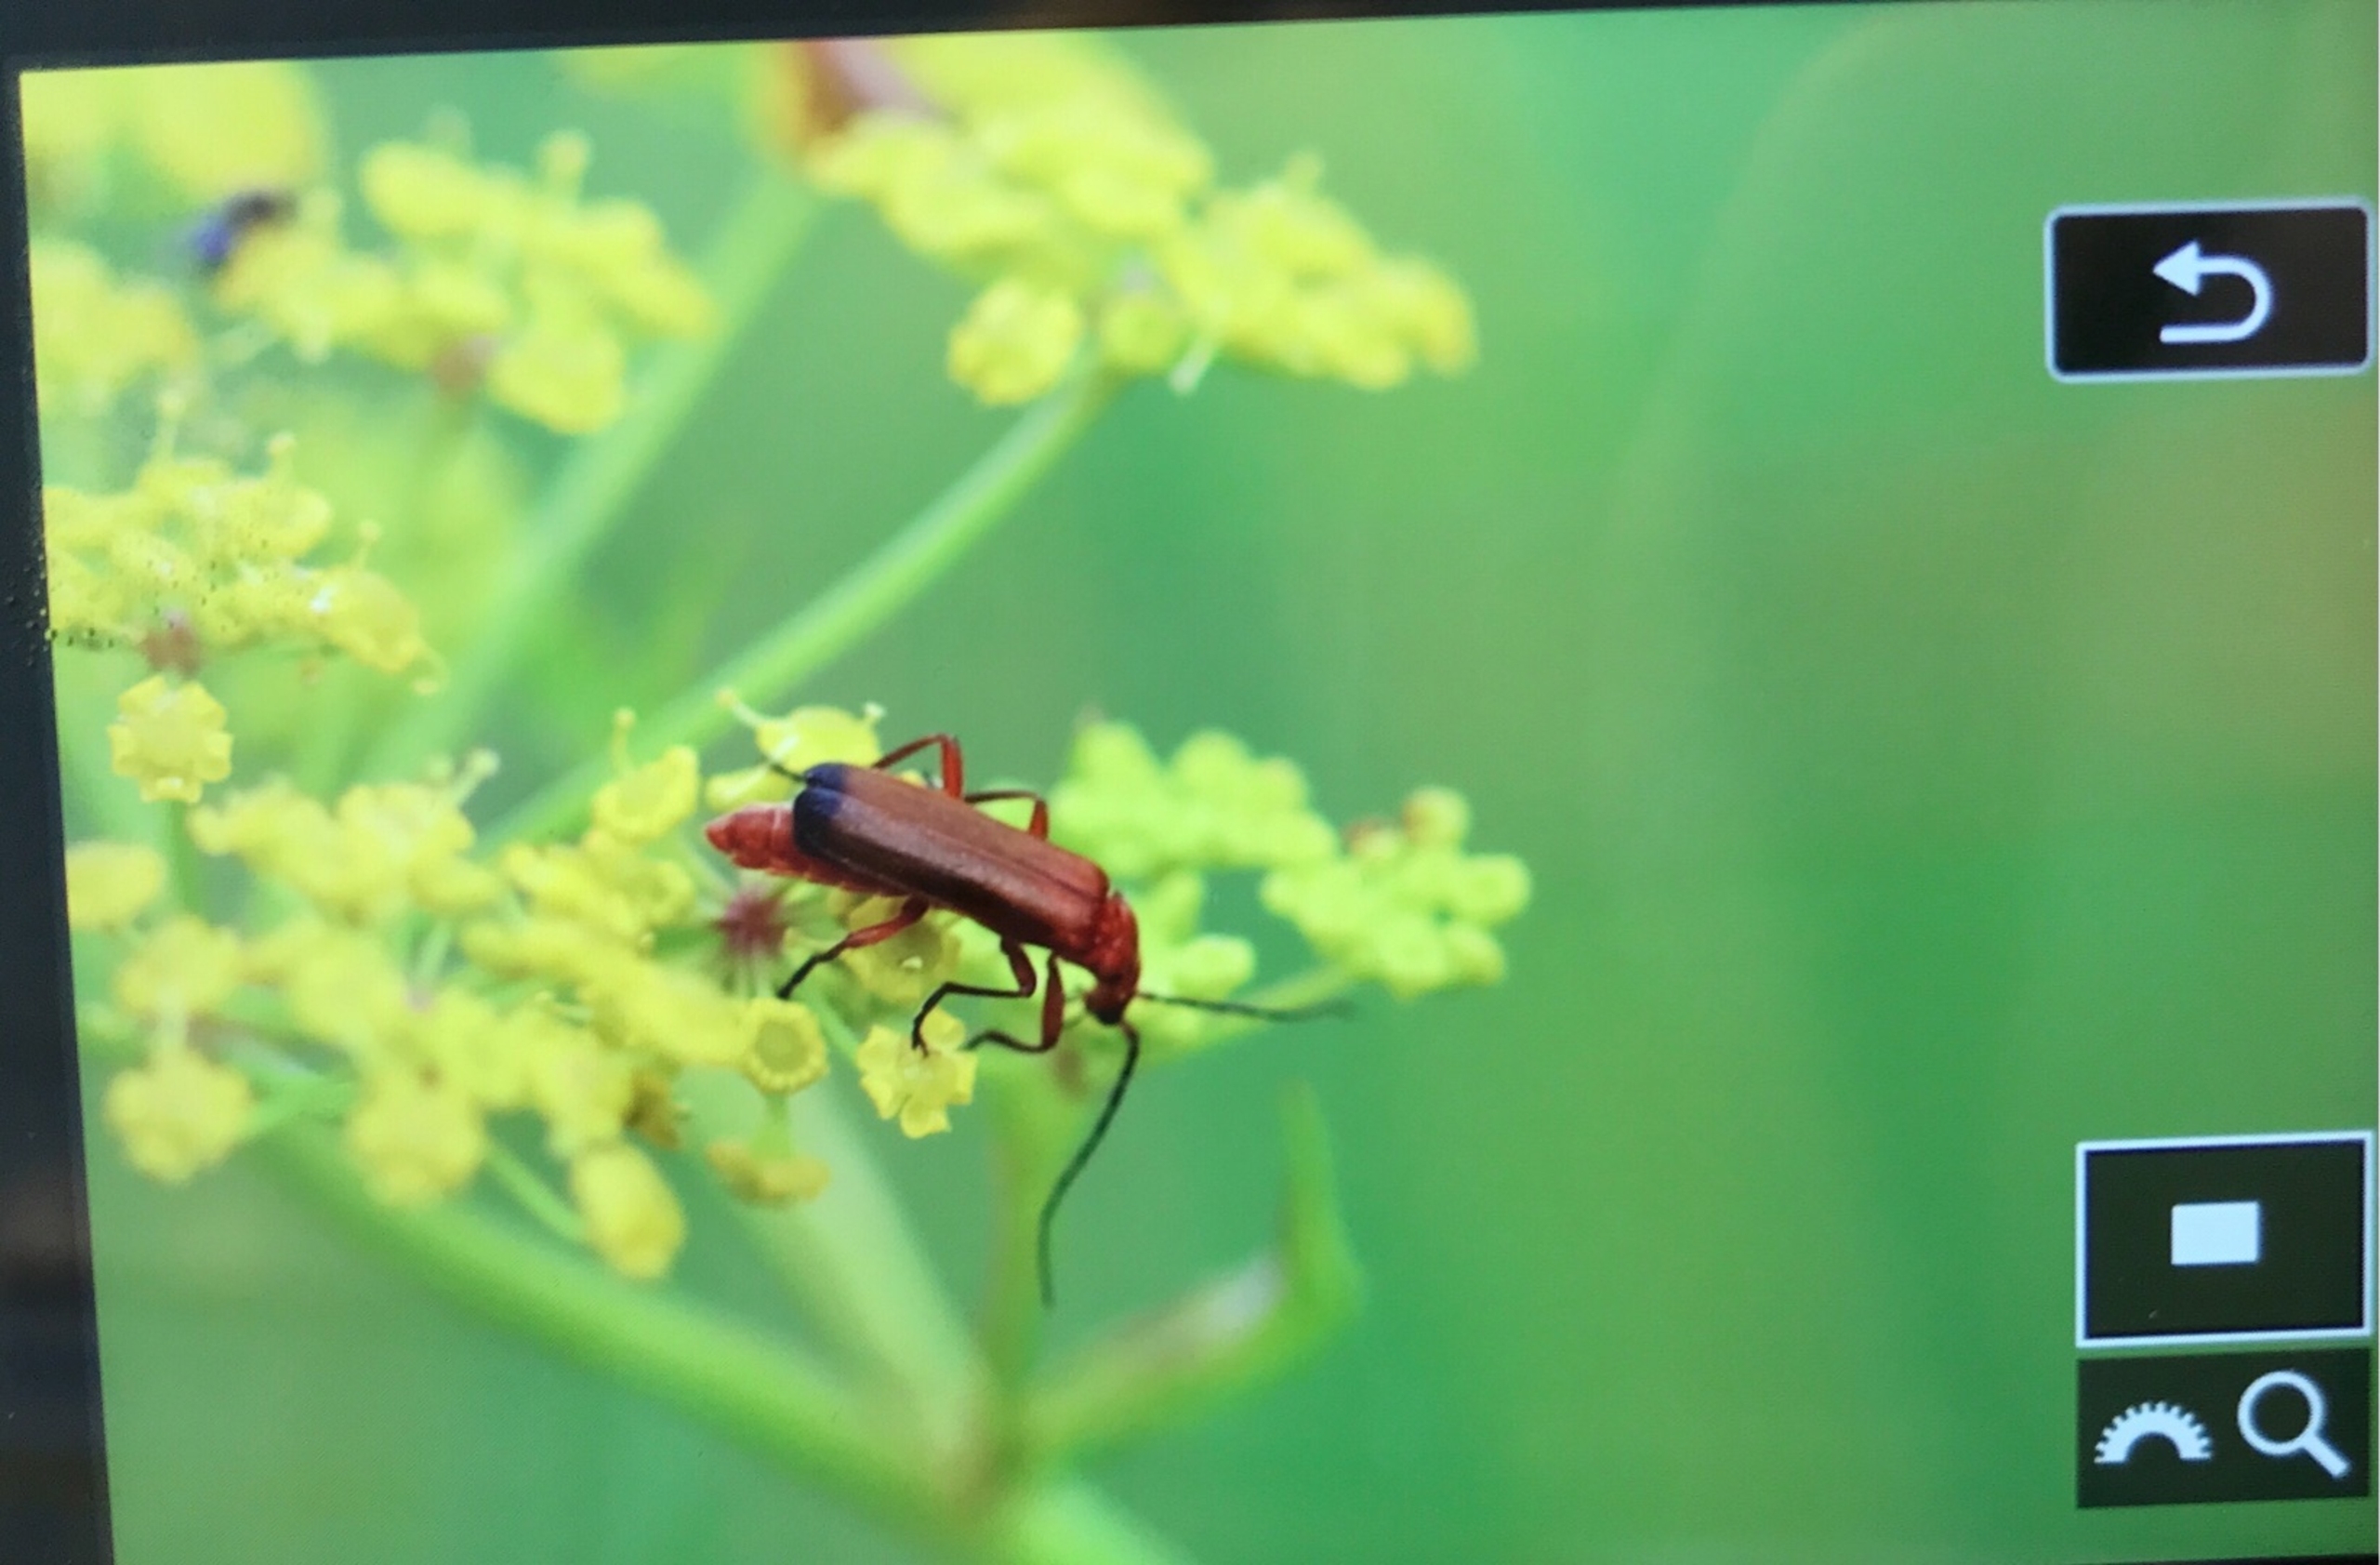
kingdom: Animalia
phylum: Arthropoda
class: Insecta
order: Coleoptera
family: Cantharidae
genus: Rhagonycha
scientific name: Rhagonycha fulva
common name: Præstebille
